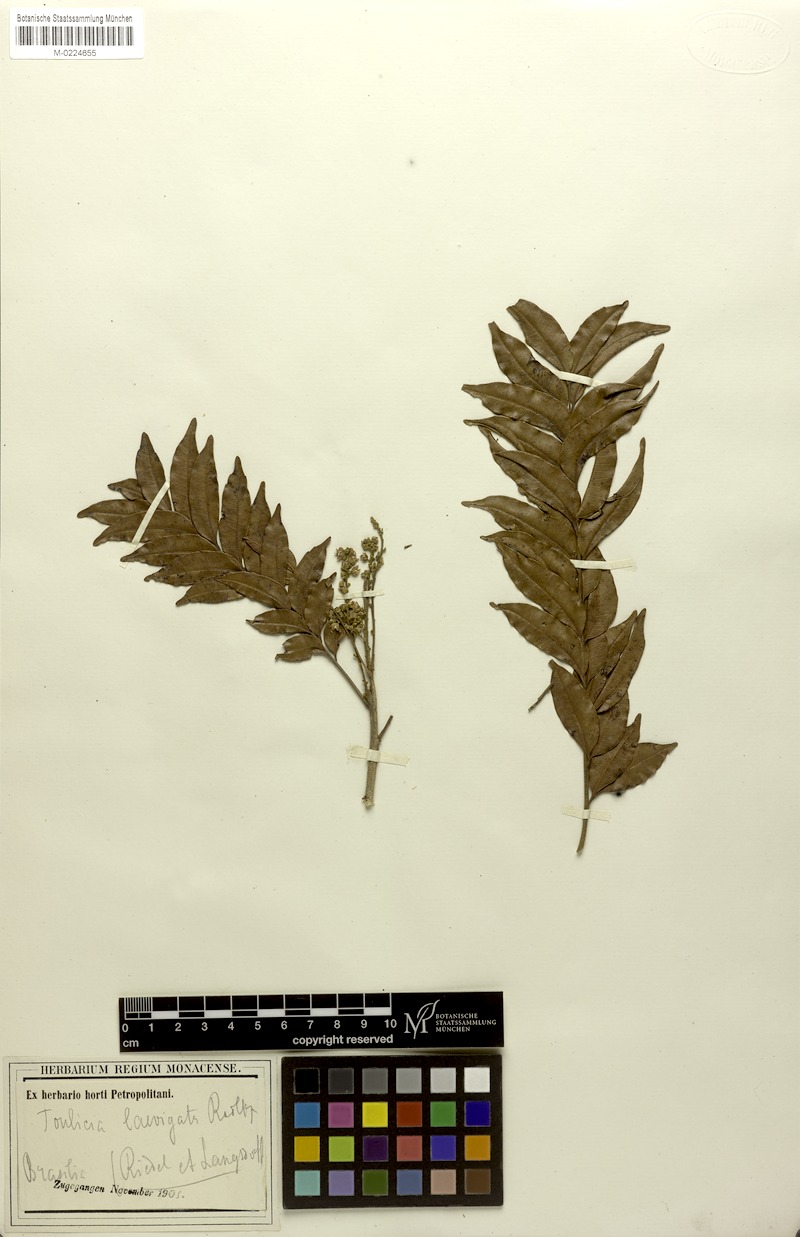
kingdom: Plantae
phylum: Tracheophyta
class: Magnoliopsida
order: Sapindales
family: Sapindaceae
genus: Toulicia
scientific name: Toulicia laevigata
